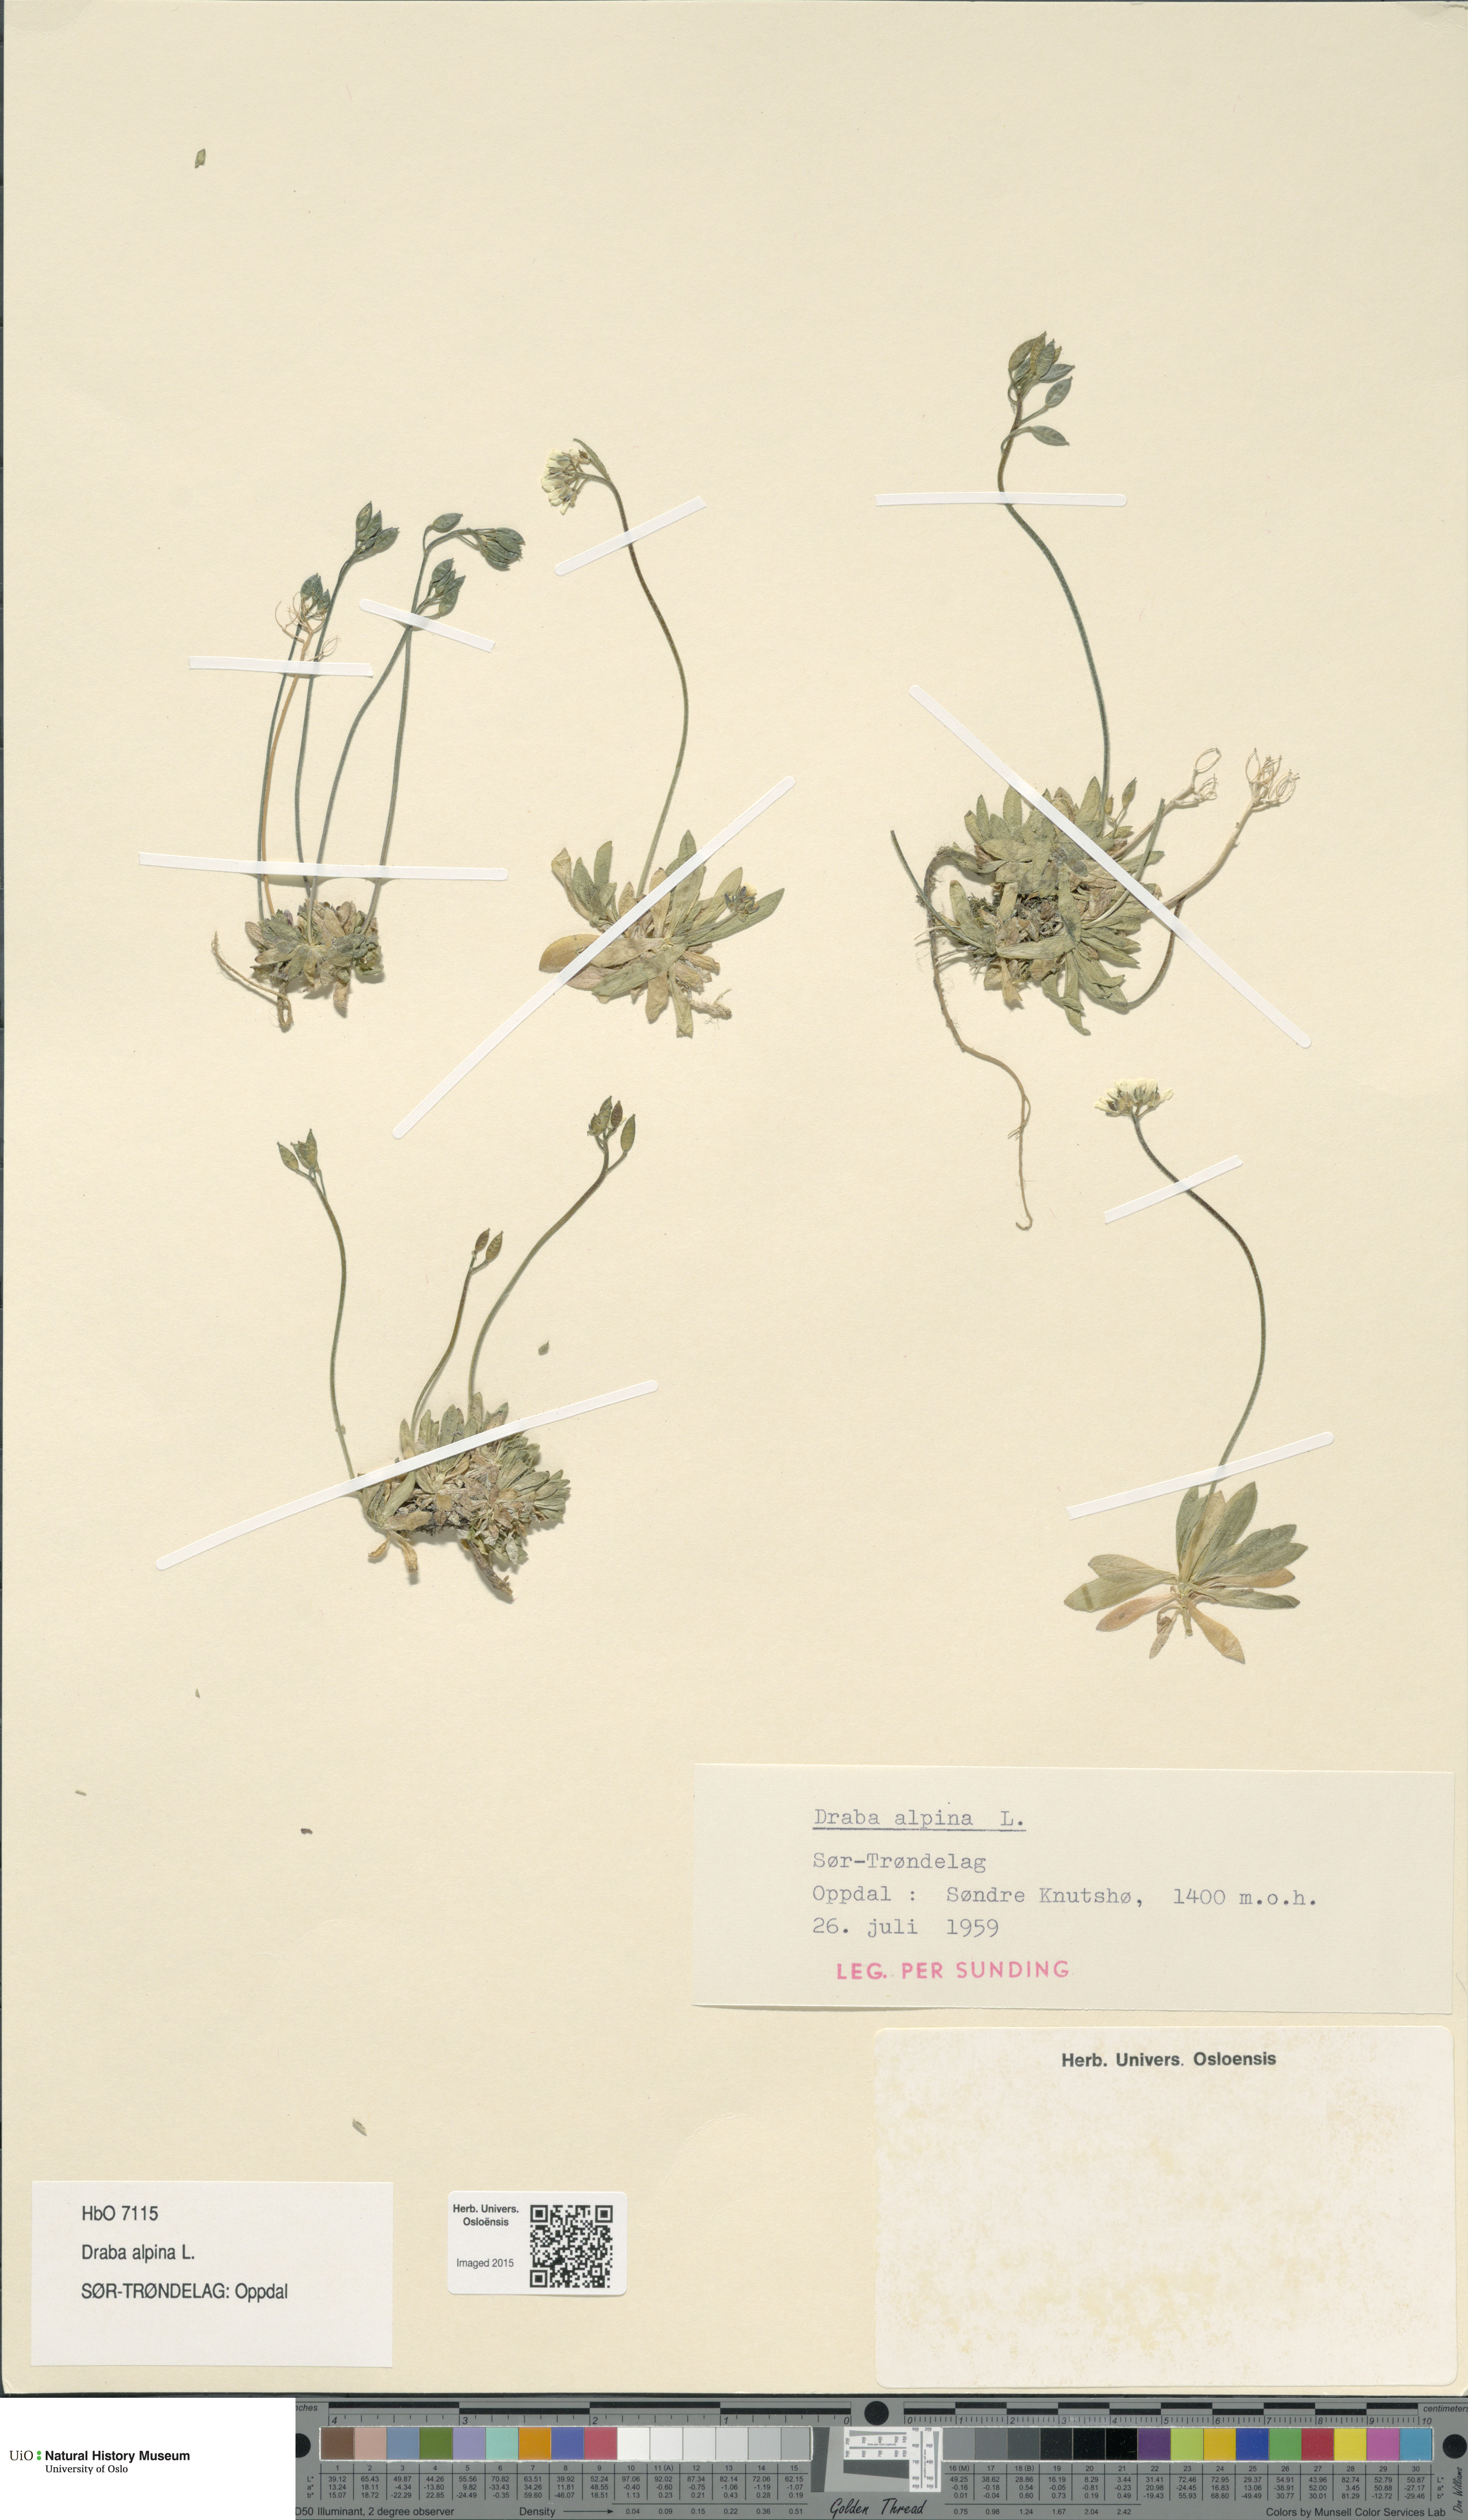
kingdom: Plantae
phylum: Tracheophyta
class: Magnoliopsida
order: Brassicales
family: Brassicaceae
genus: Draba
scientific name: Draba alpina
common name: Alpine draba
